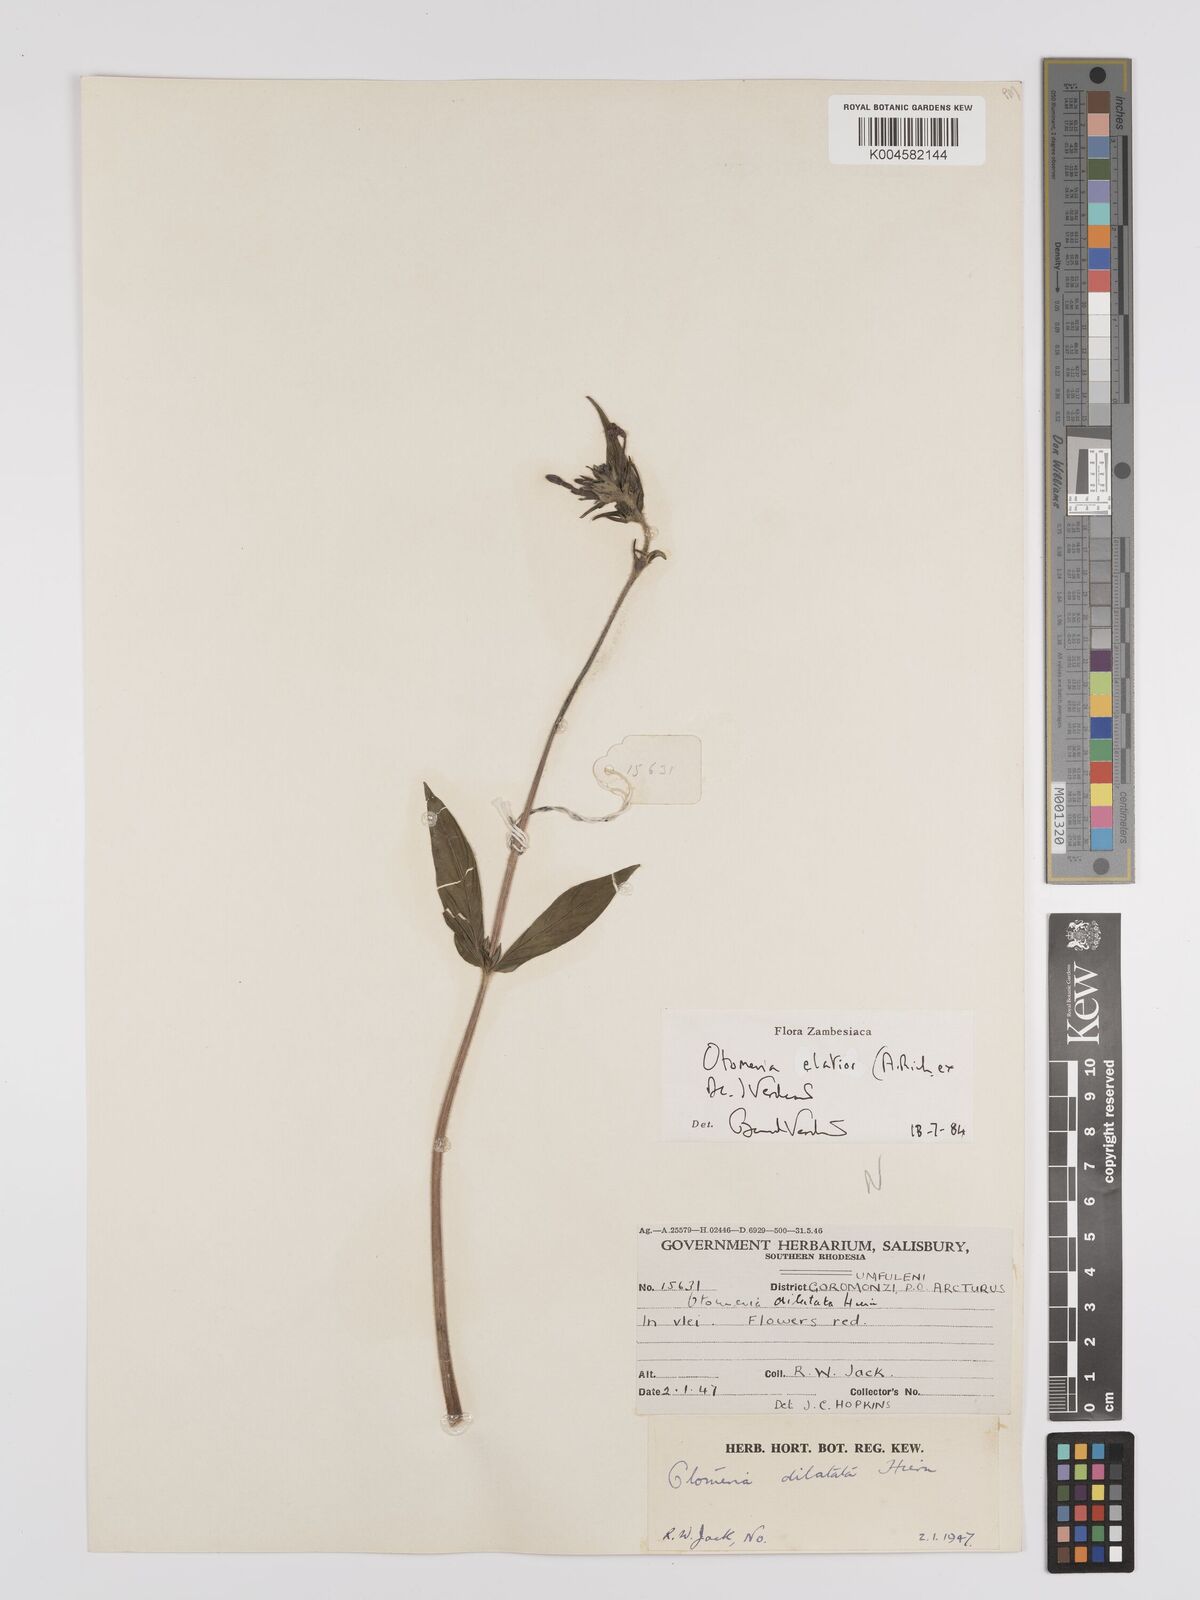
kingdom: Plantae
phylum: Tracheophyta
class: Magnoliopsida
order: Gentianales
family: Rubiaceae
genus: Otomeria
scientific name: Otomeria elatior
